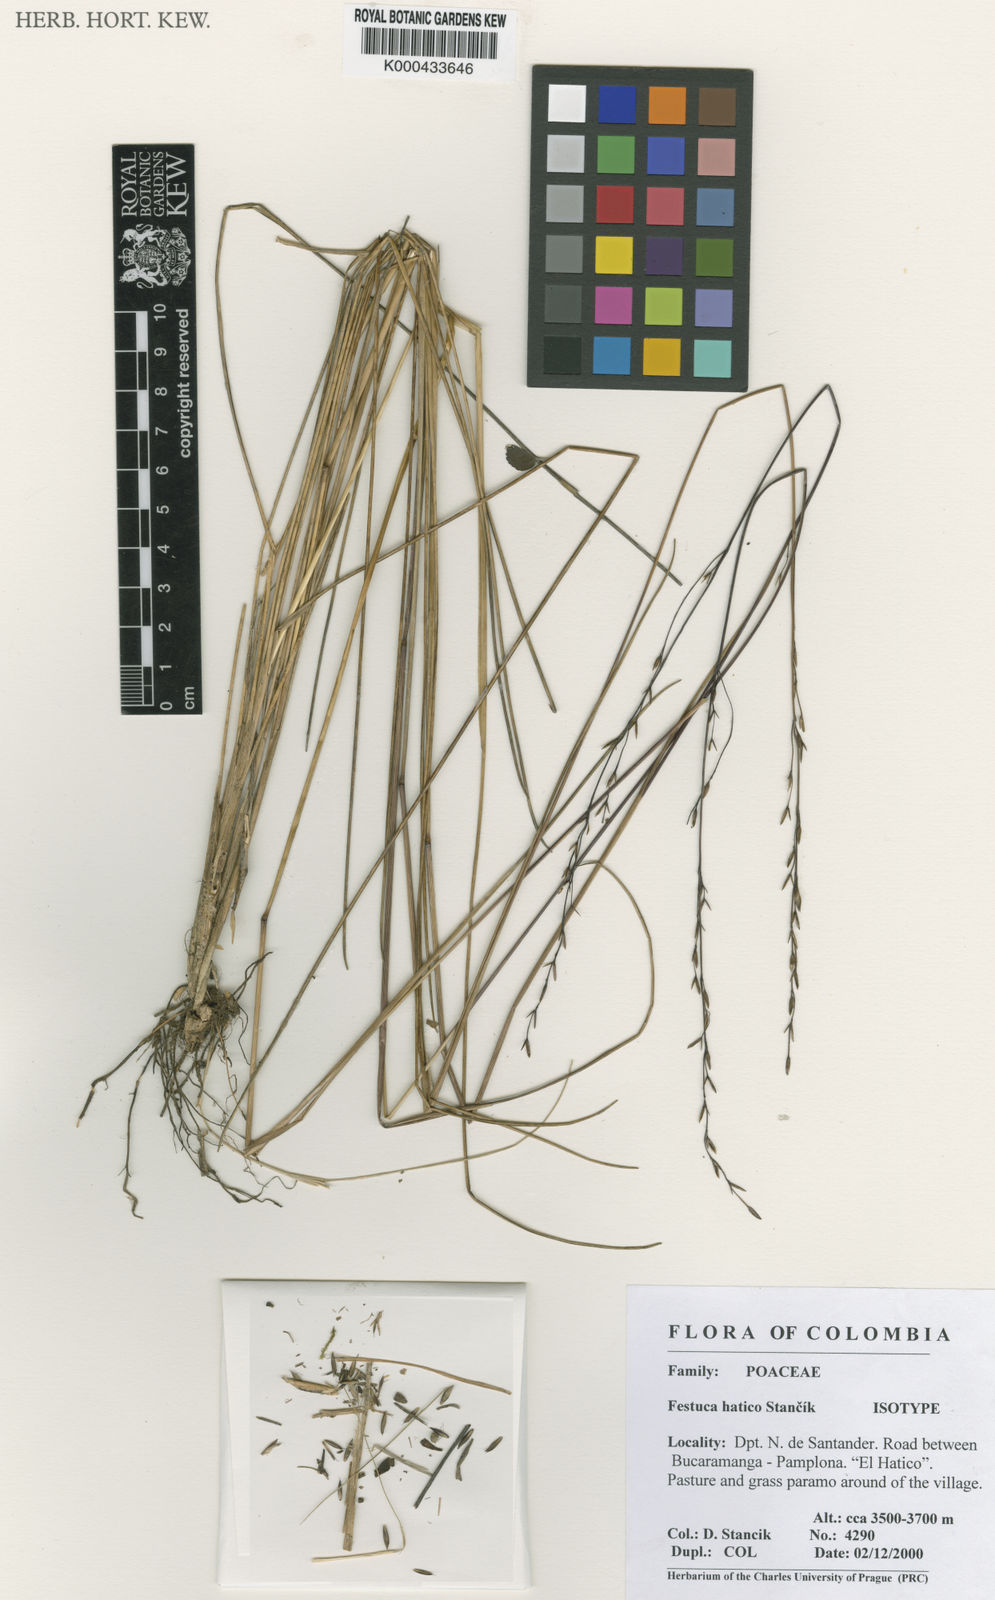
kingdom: Plantae
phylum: Tracheophyta
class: Liliopsida
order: Poales
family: Poaceae
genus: Festuca
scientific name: Festuca
